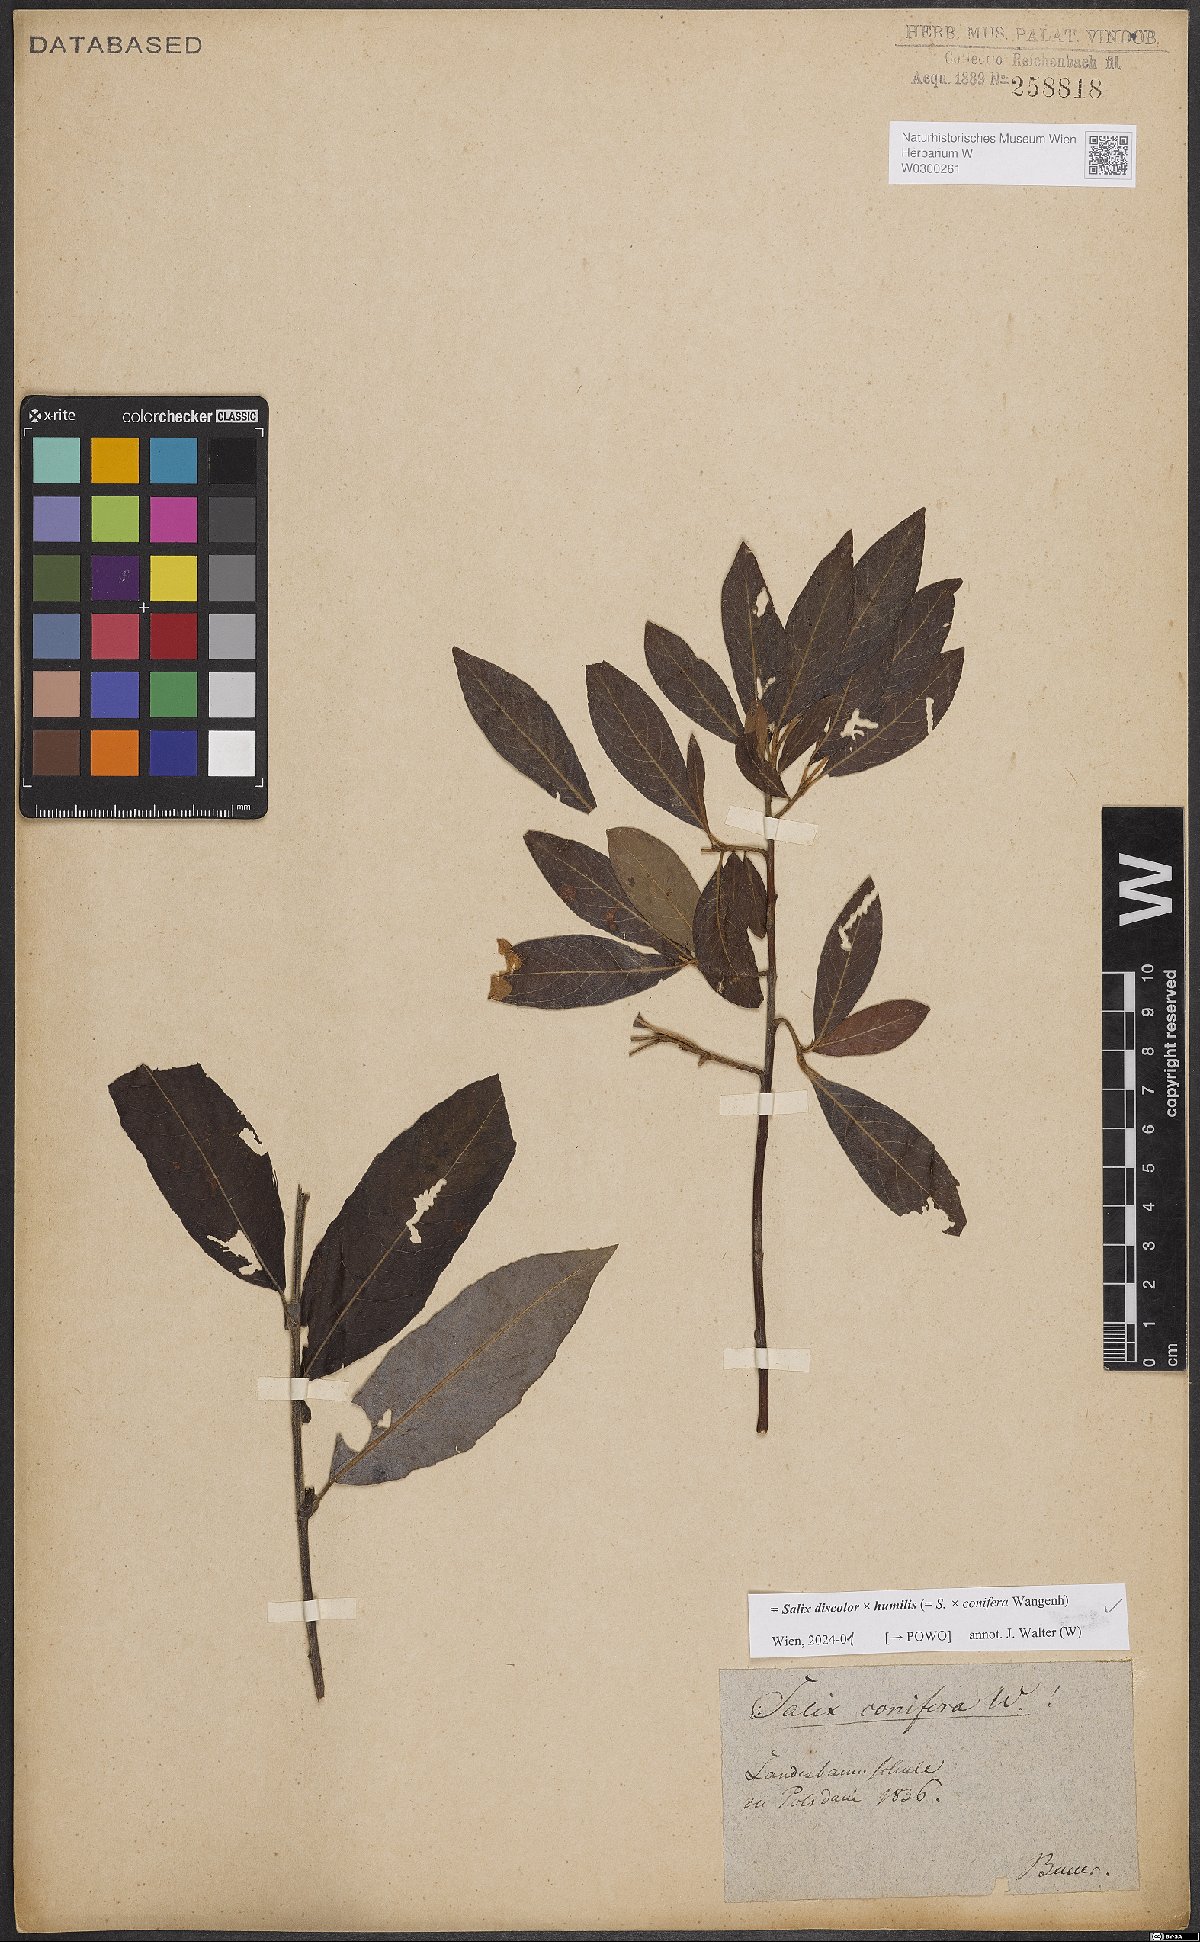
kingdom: Plantae
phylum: Tracheophyta
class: Magnoliopsida
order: Malpighiales
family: Salicaceae
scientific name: Salicaceae
